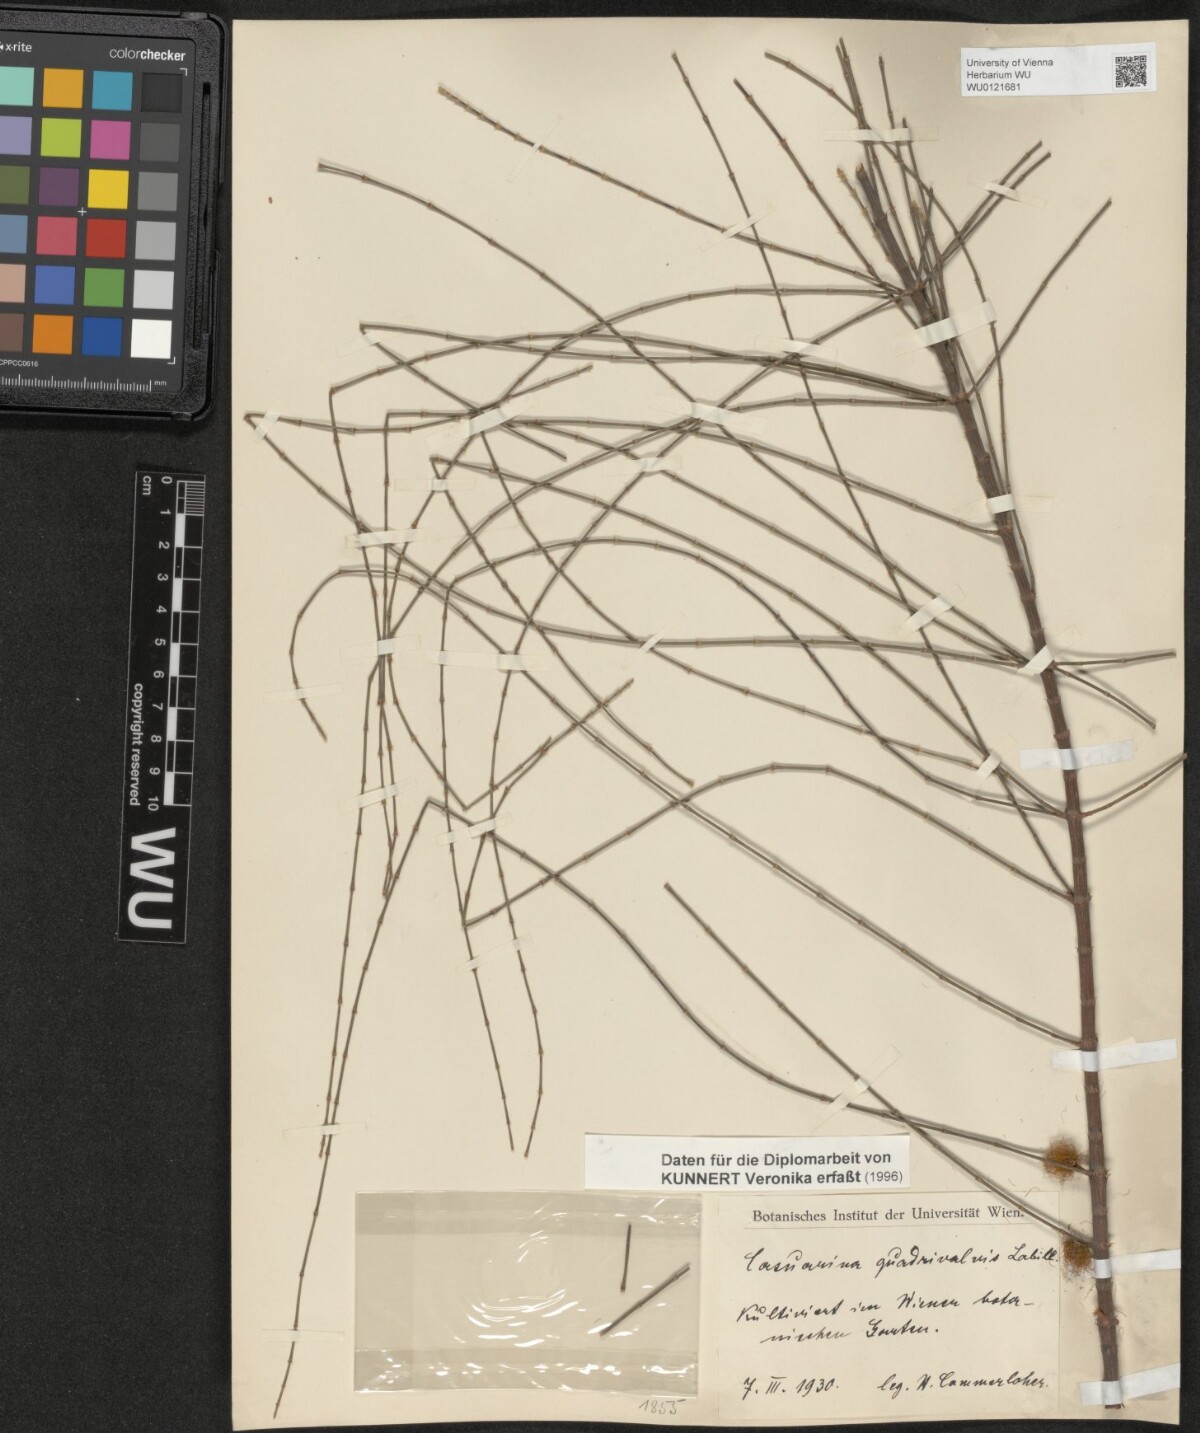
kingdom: Plantae
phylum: Tracheophyta
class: Magnoliopsida
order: Fagales
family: Casuarinaceae
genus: Allocasuarina
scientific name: Allocasuarina verticillata
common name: Drooping she-oak
